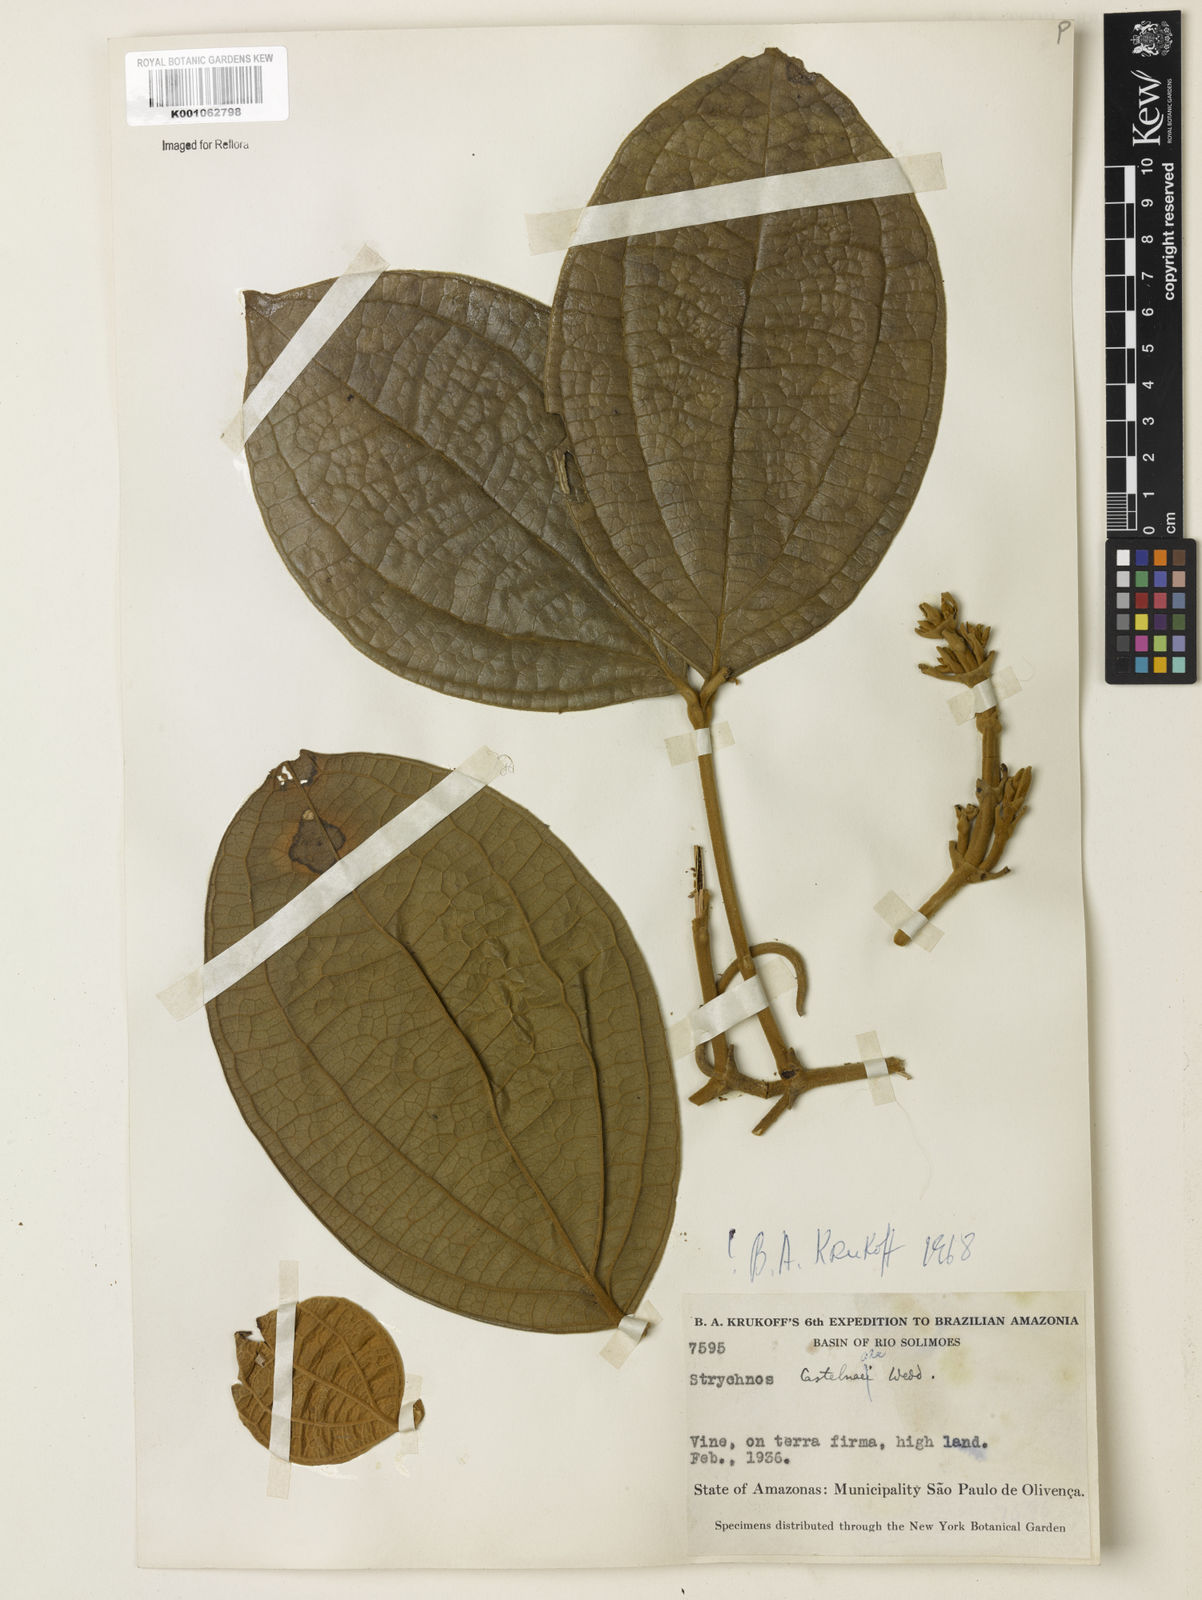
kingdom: Plantae
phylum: Tracheophyta
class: Magnoliopsida
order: Gentianales
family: Loganiaceae
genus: Strychnos
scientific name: Strychnos
